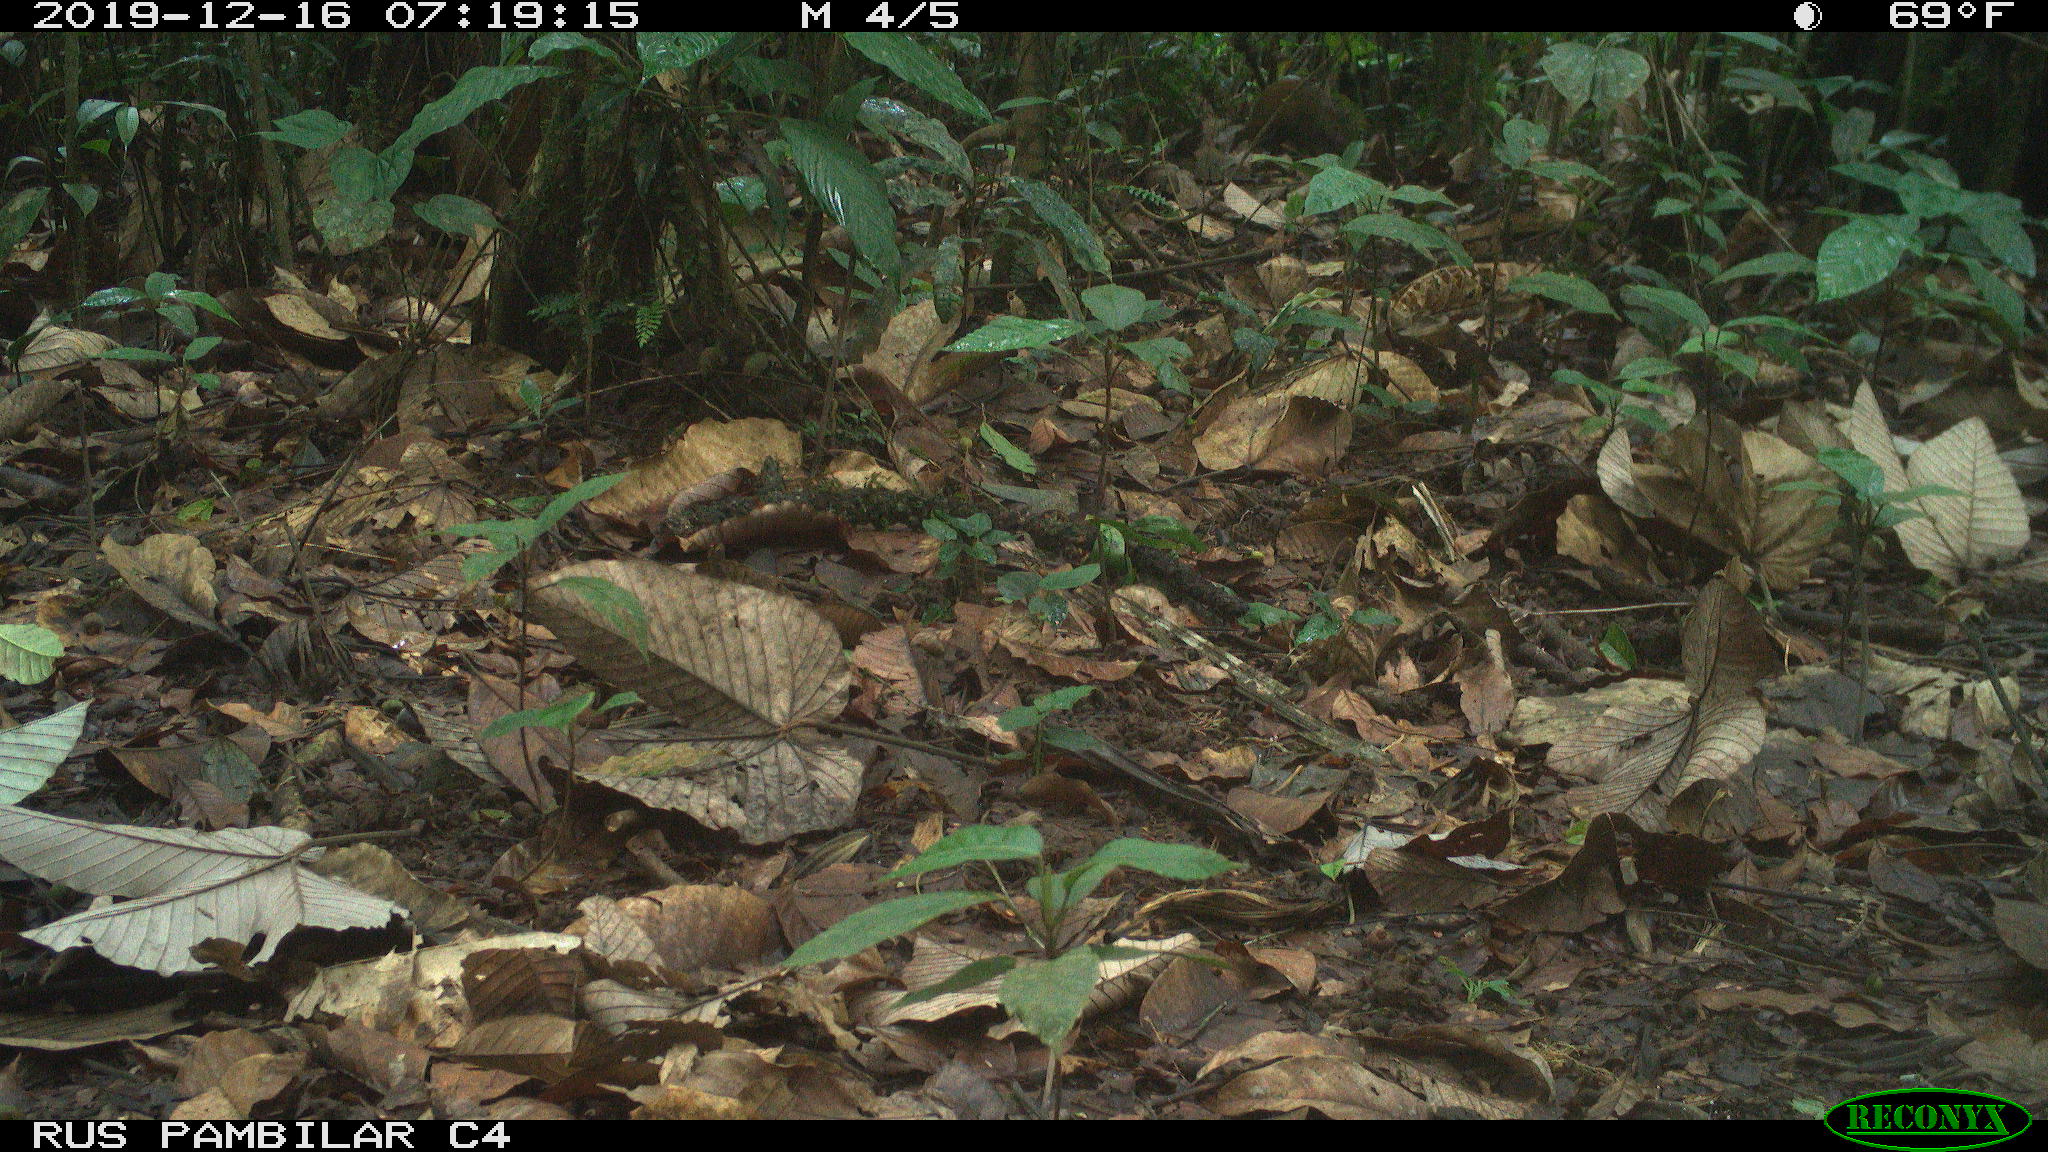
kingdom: Animalia
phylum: Chordata
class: Mammalia
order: Rodentia
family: Dasyproctidae
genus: Dasyprocta
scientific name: Dasyprocta punctata
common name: Central american agouti
